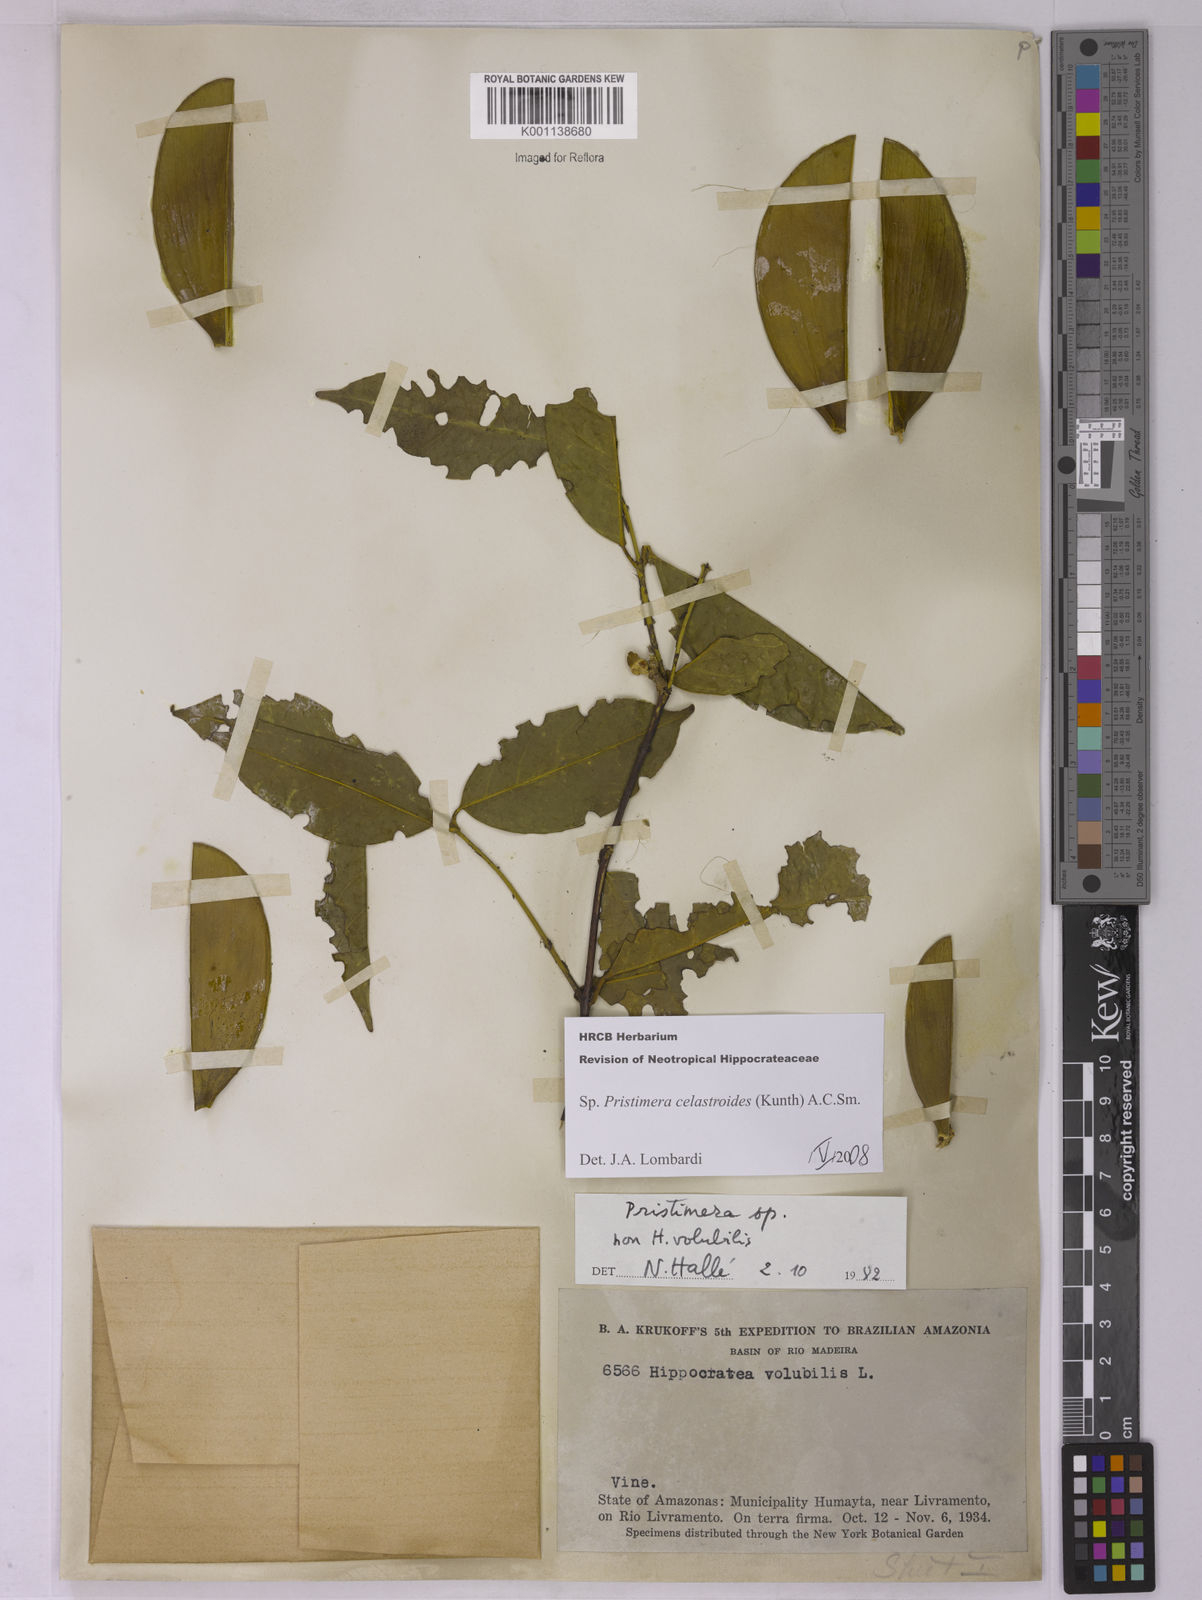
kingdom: Plantae
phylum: Tracheophyta
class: Magnoliopsida
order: Celastrales
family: Celastraceae
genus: Pristimera
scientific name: Pristimera celastroides
